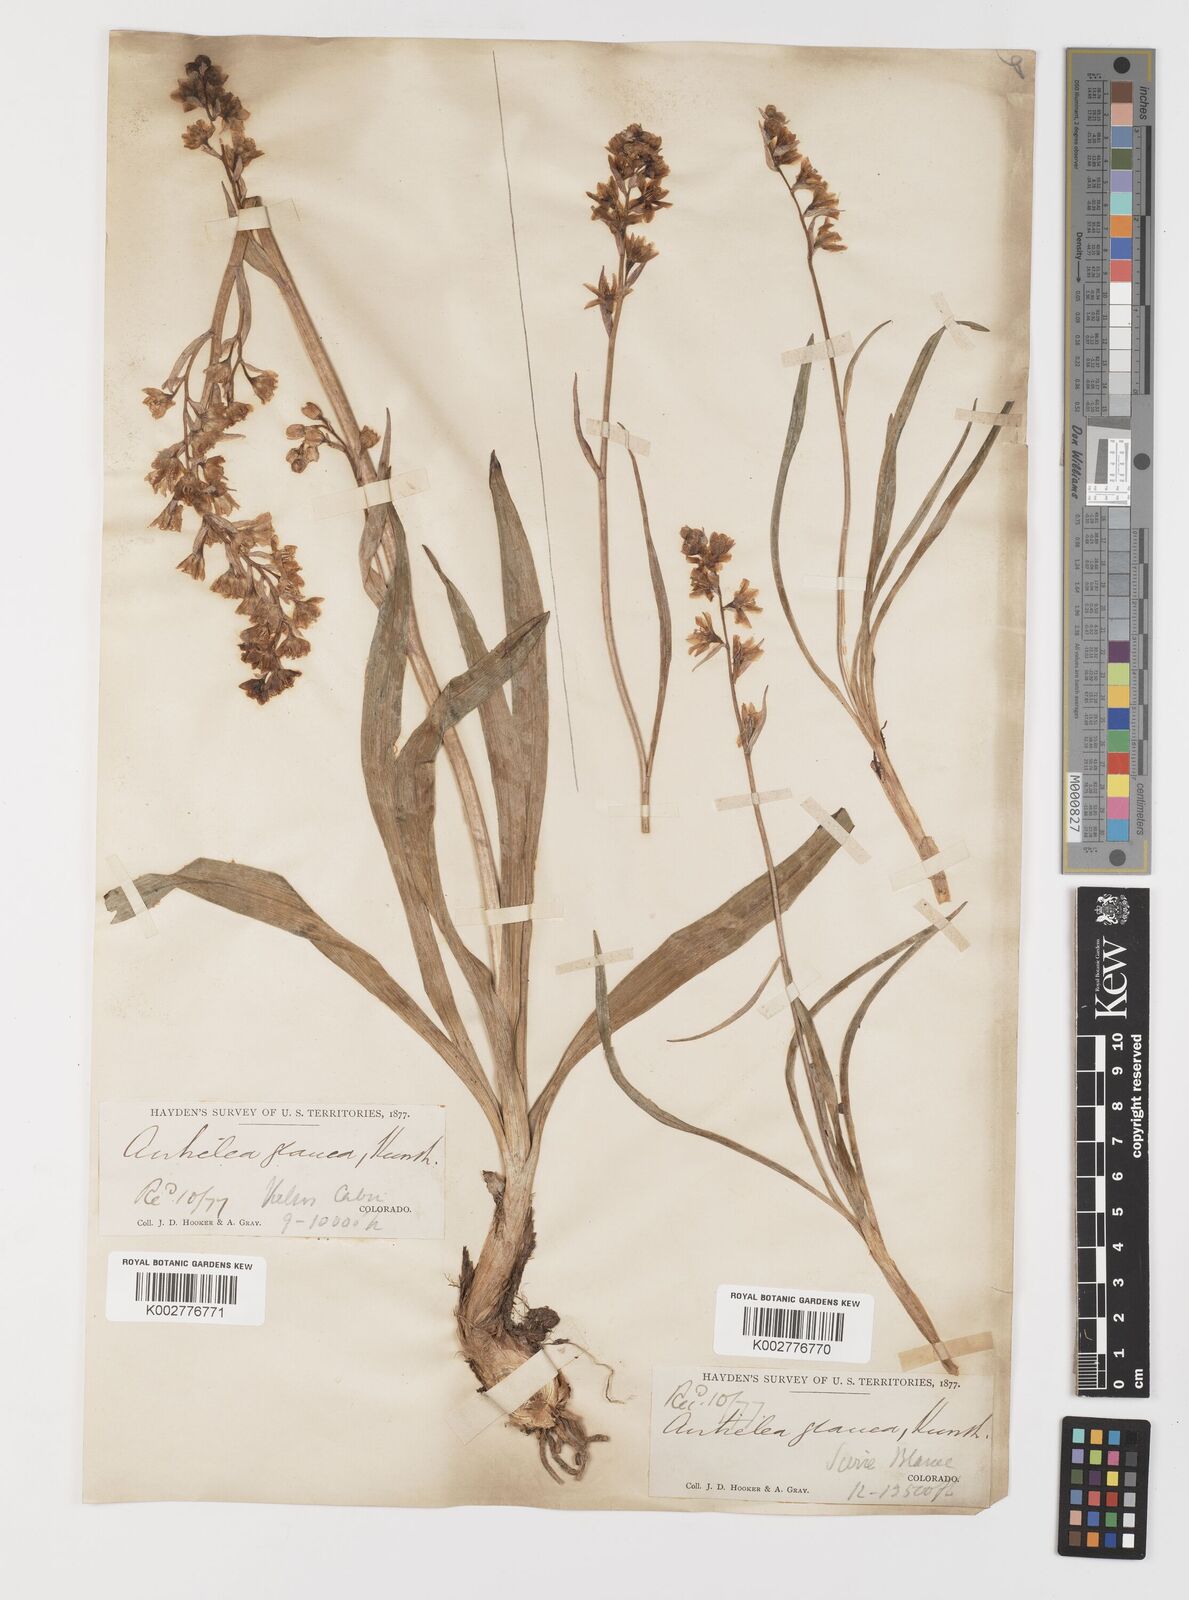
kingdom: Plantae
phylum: Tracheophyta
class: Liliopsida
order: Liliales
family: Melanthiaceae
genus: Anticlea
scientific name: Anticlea elegans
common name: Mountain death camas
